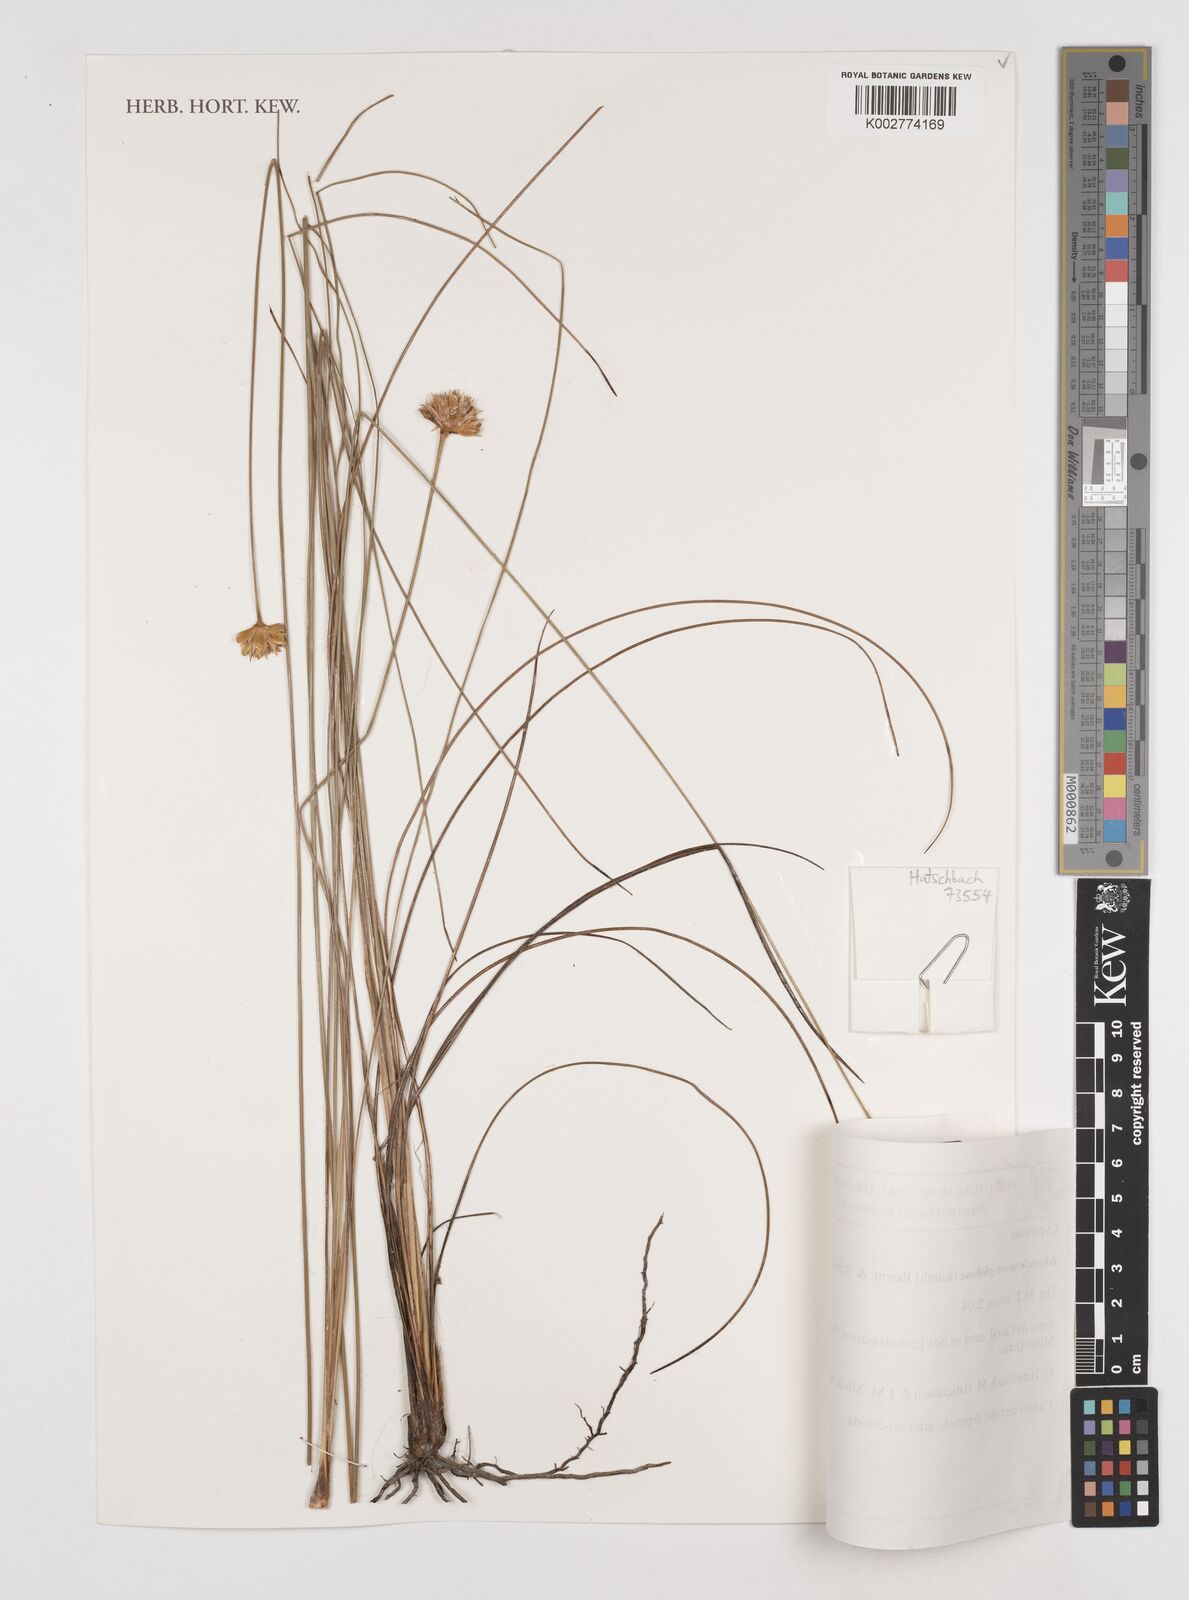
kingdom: Plantae
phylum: Tracheophyta
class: Liliopsida
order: Poales
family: Cyperaceae
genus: Rhynchospora
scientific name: Rhynchospora globosa
